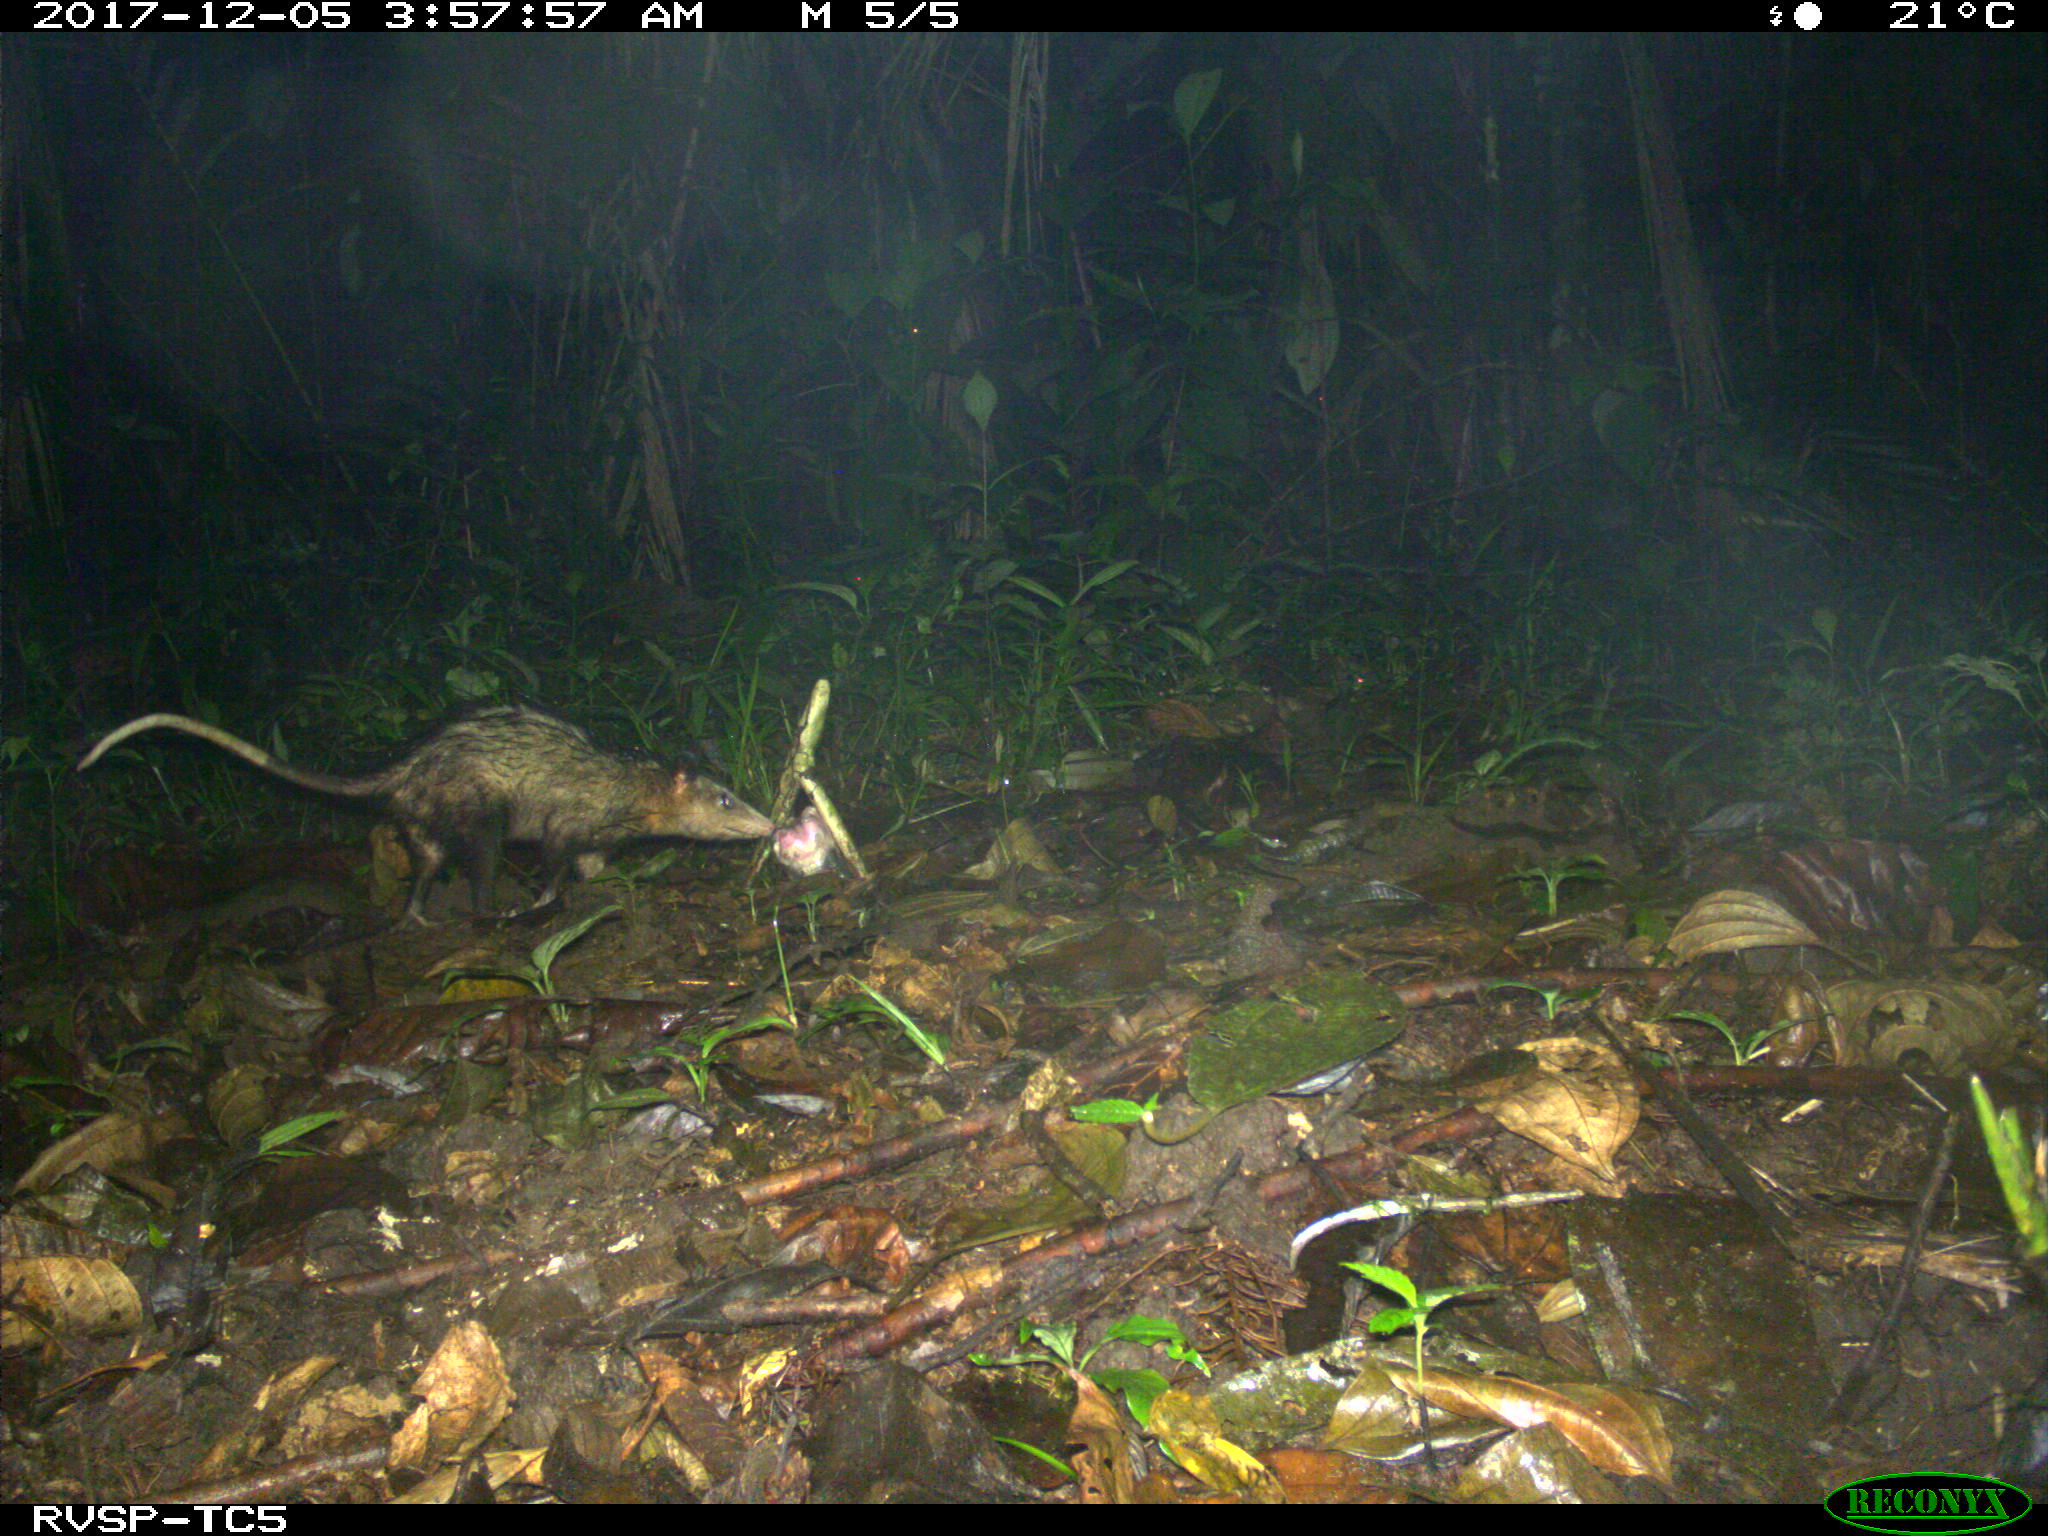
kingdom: Animalia
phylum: Chordata
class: Mammalia
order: Didelphimorphia
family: Didelphidae
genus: Didelphis
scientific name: Didelphis marsupialis
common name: Common opossum
